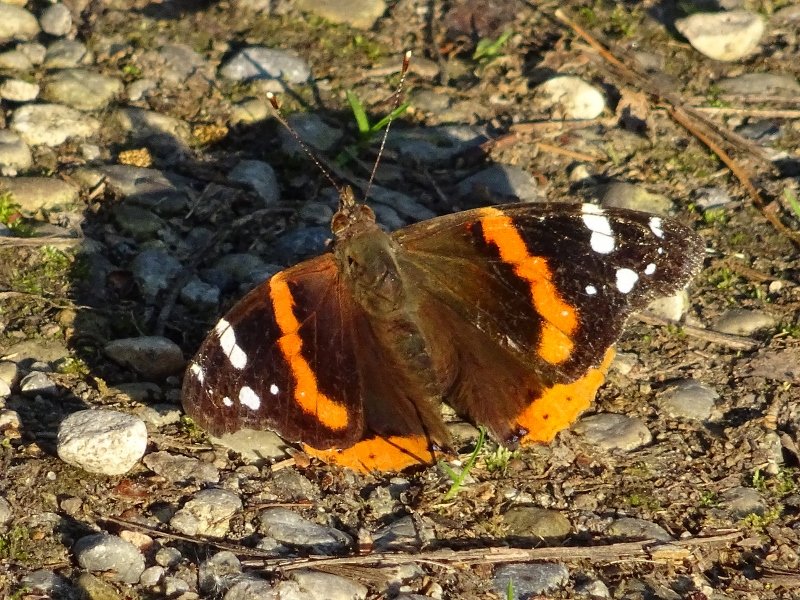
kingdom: Animalia
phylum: Arthropoda
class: Insecta
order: Lepidoptera
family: Nymphalidae
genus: Vanessa
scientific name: Vanessa atalanta
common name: Red Admiral
